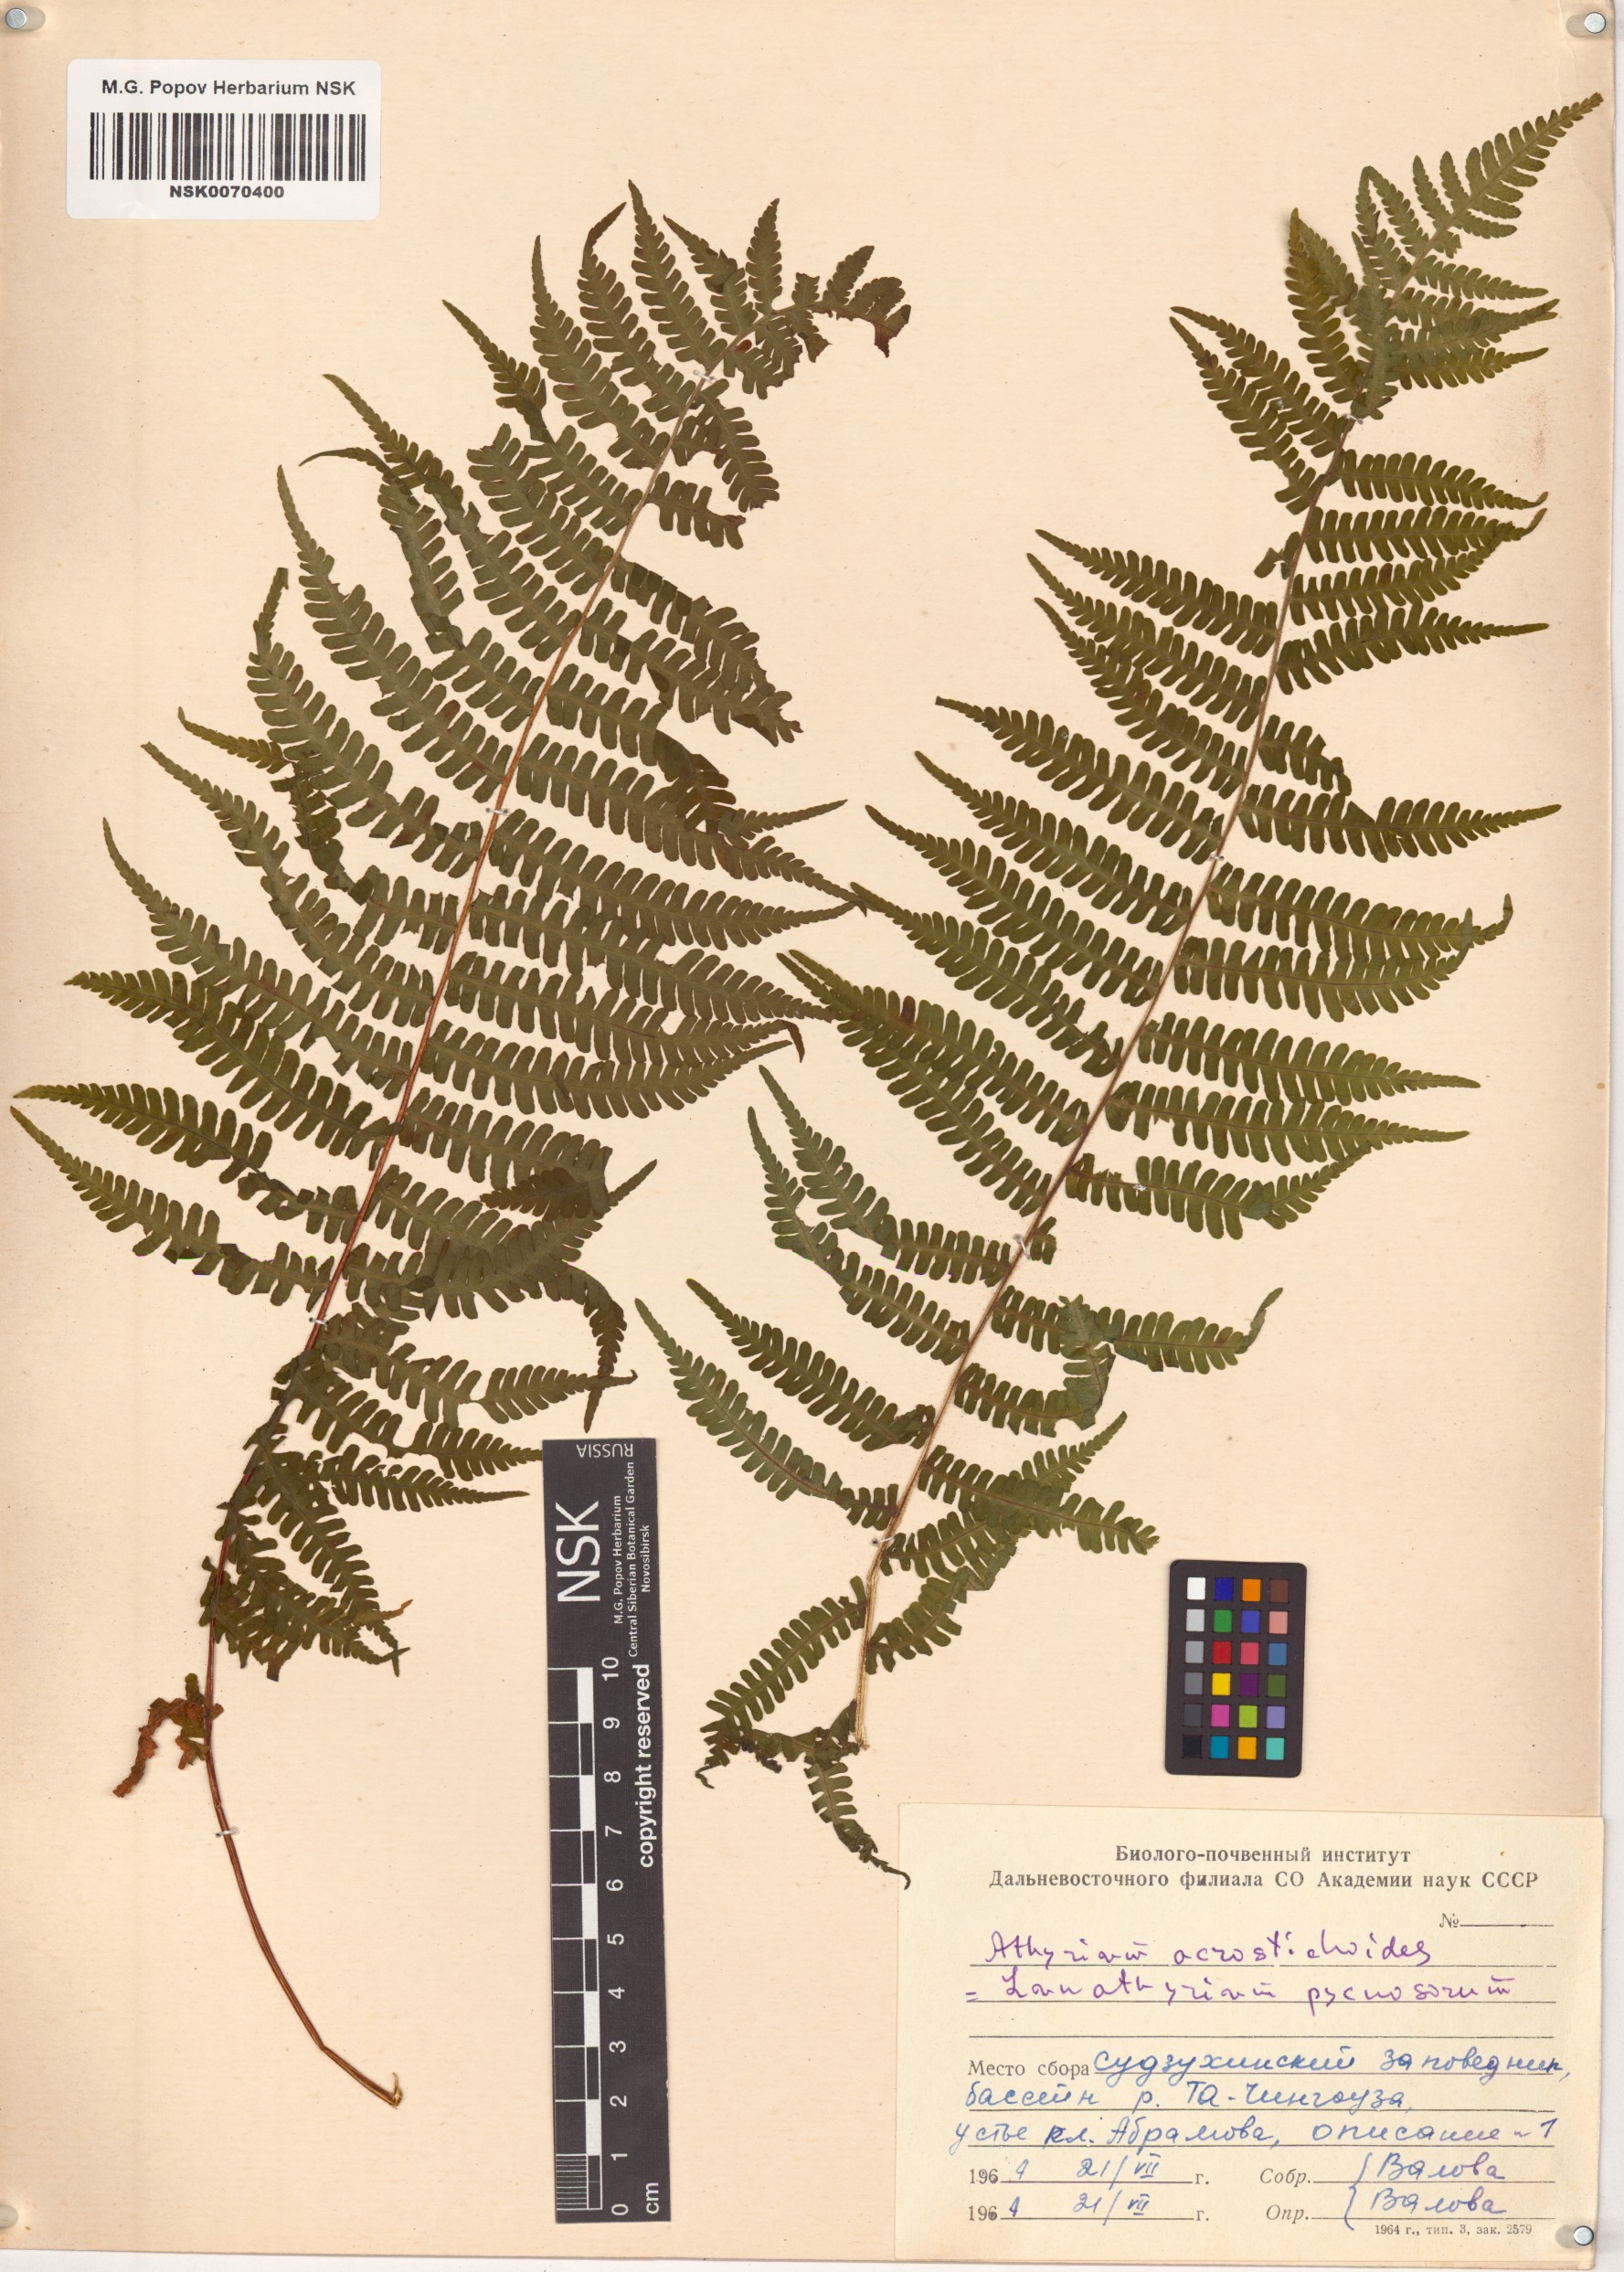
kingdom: Plantae
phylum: Tracheophyta
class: Polypodiopsida
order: Polypodiales
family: Athyriaceae
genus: Deparia
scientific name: Deparia acrostichoides
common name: Silver false spleenwort
